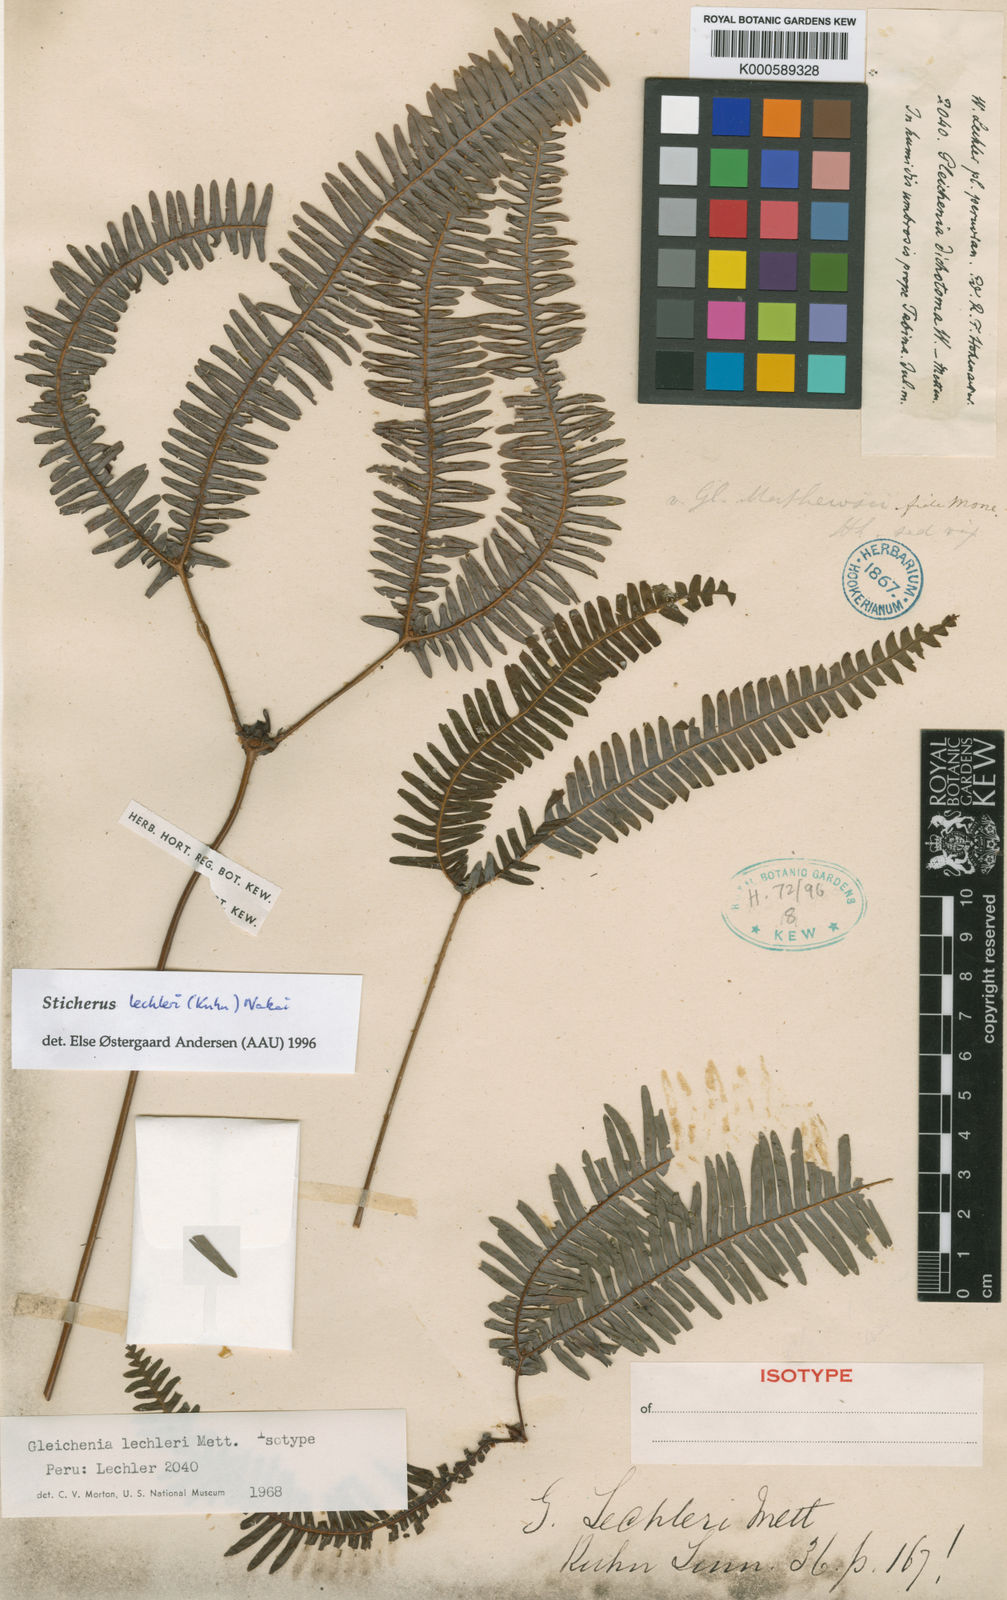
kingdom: Plantae
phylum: Tracheophyta
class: Polypodiopsida
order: Gleicheniales
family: Gleicheniaceae
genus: Sticherus
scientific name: Sticherus decurrens
